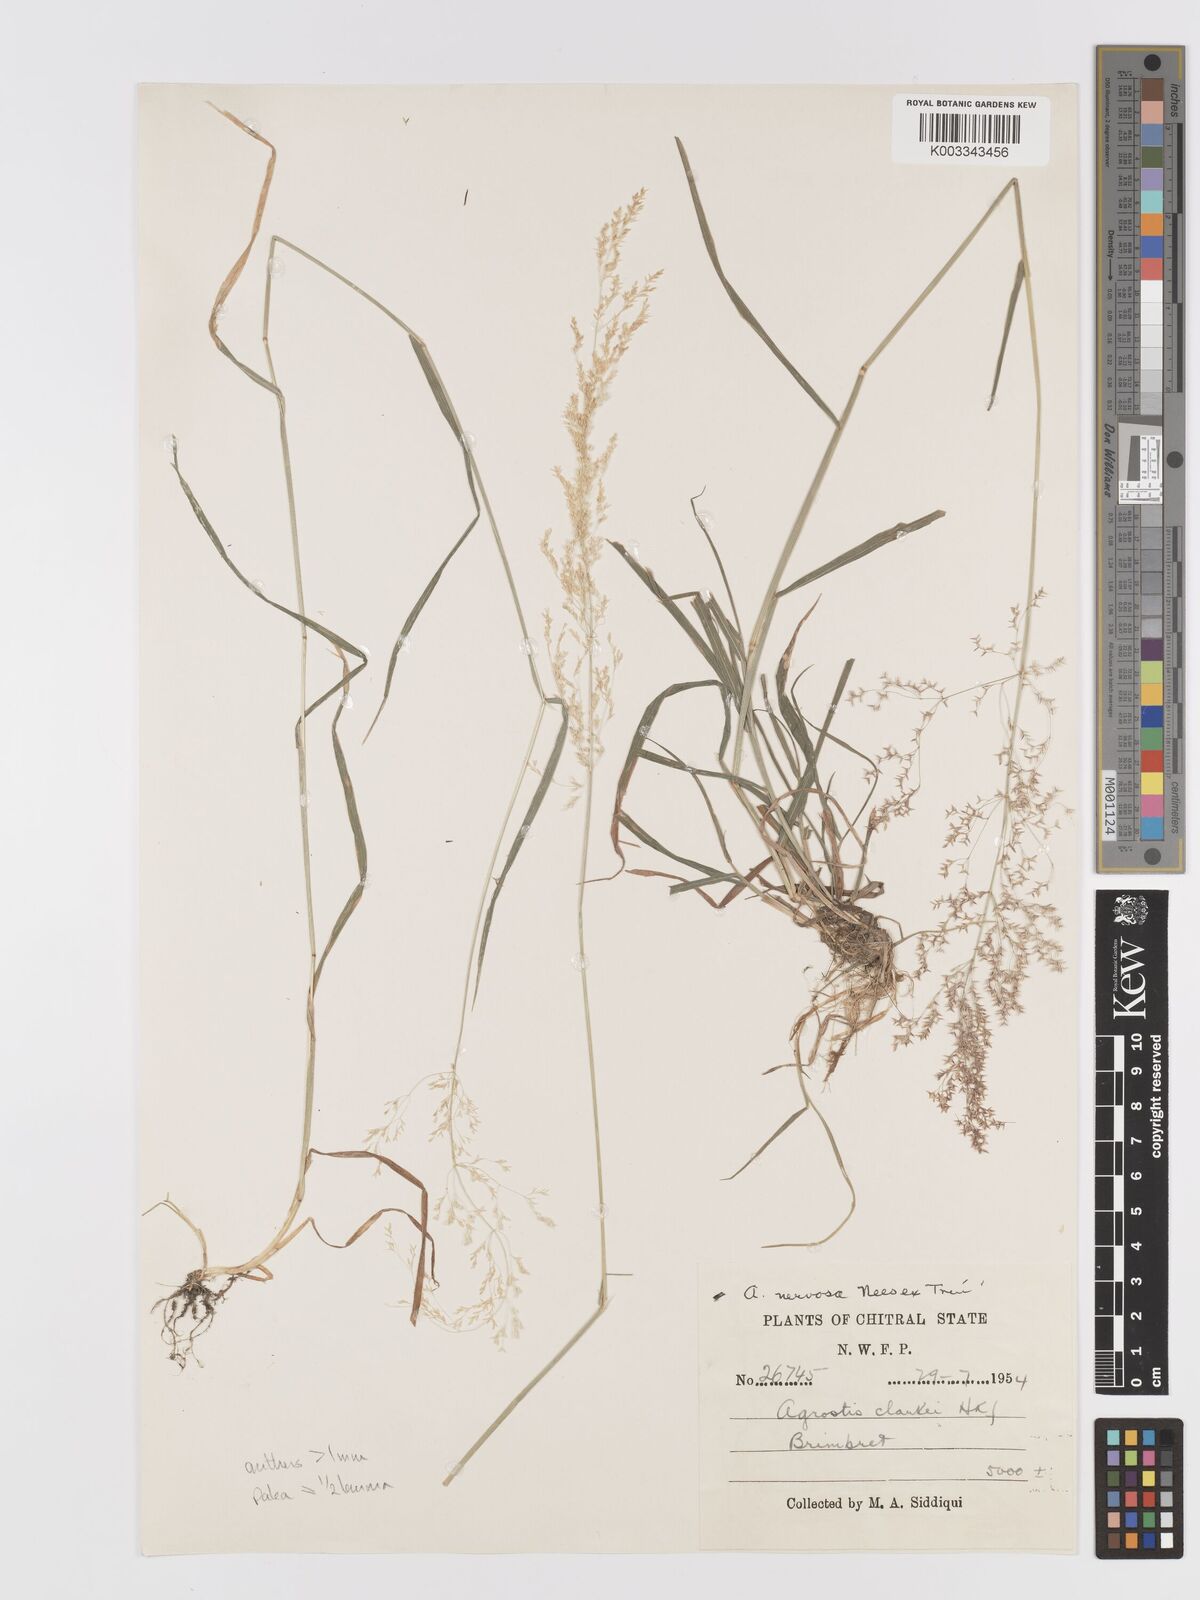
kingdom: Plantae
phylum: Tracheophyta
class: Liliopsida
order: Poales
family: Poaceae
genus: Agrostis
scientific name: Agrostis stolonifera
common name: Creeping bentgrass
